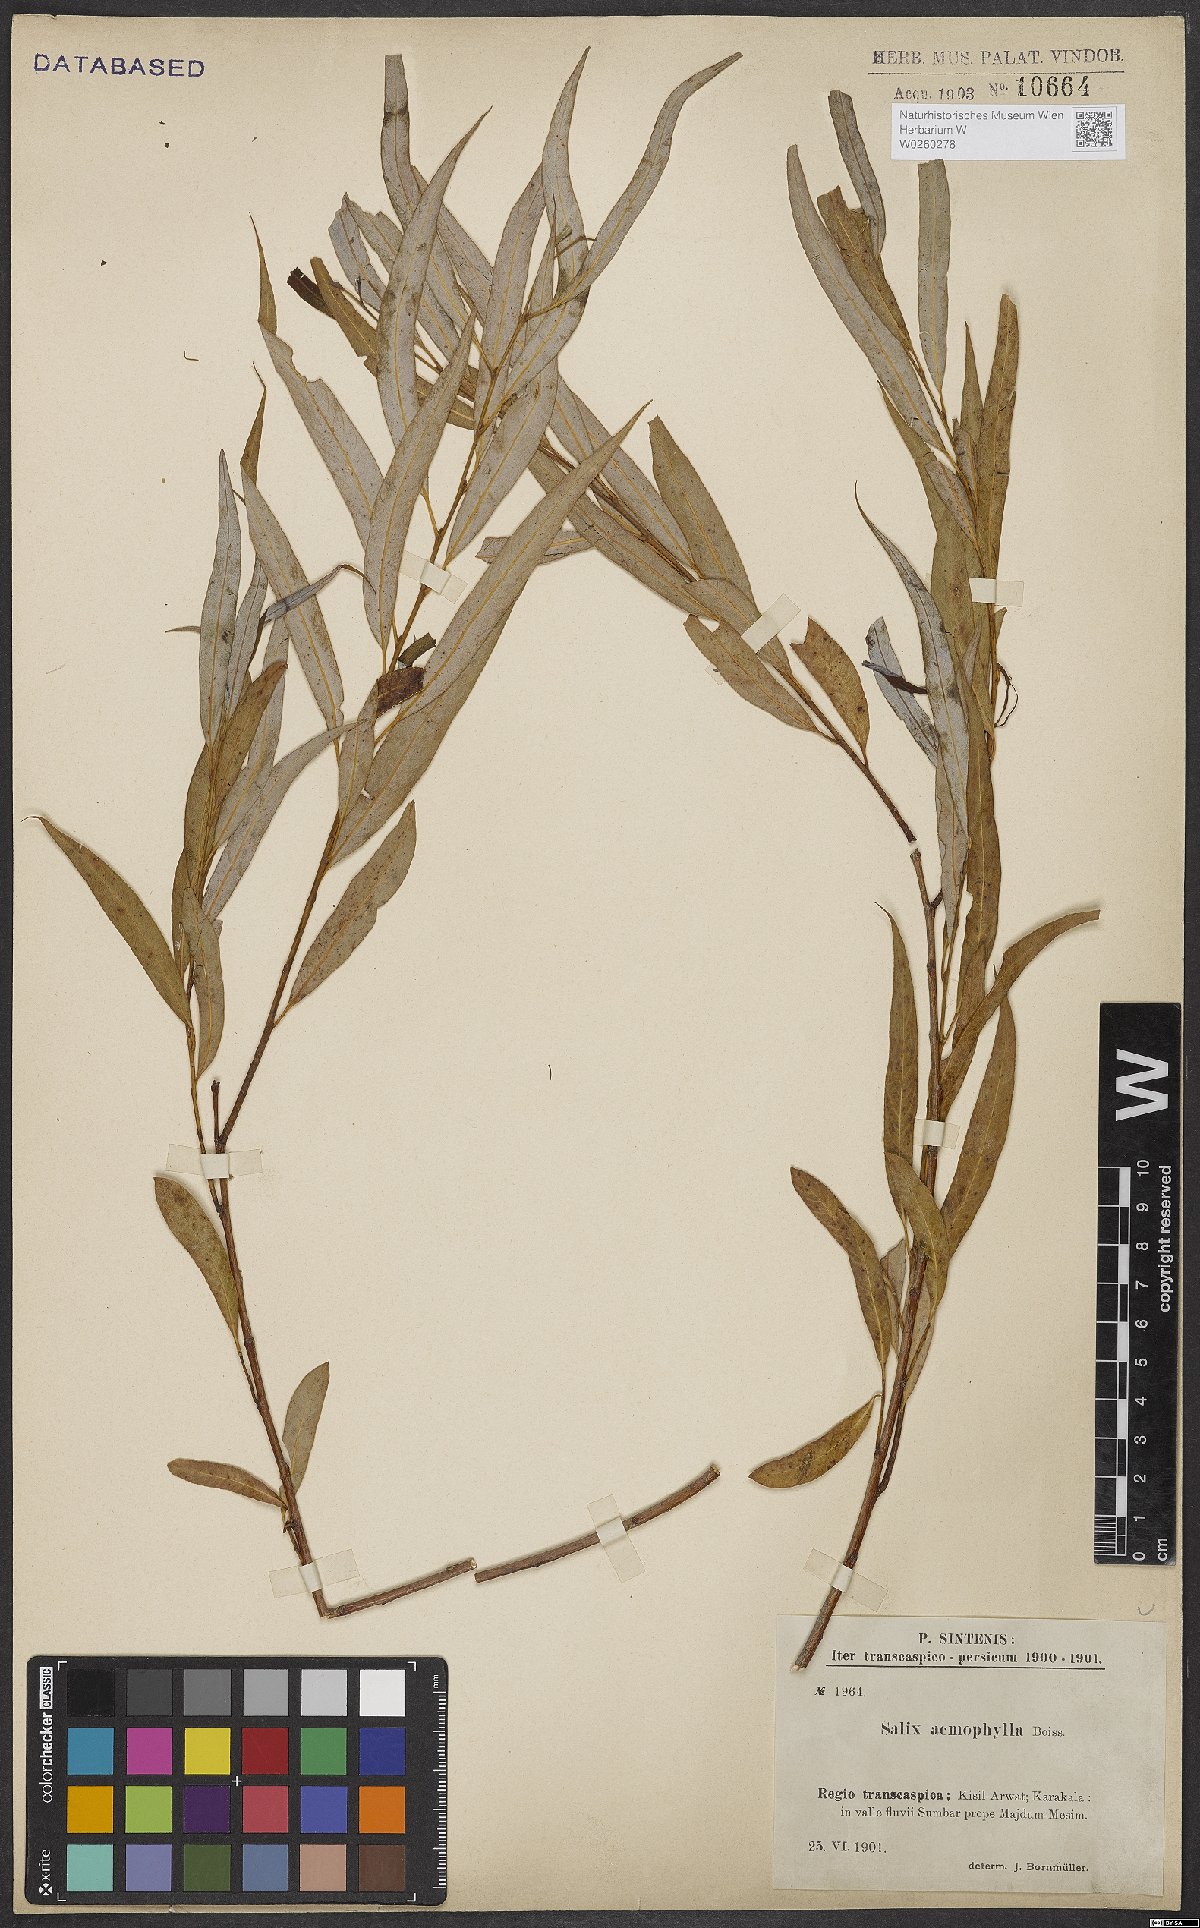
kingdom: Plantae
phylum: Tracheophyta
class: Magnoliopsida
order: Malpighiales
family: Salicaceae
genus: Salix
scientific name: Salix acmophylla
